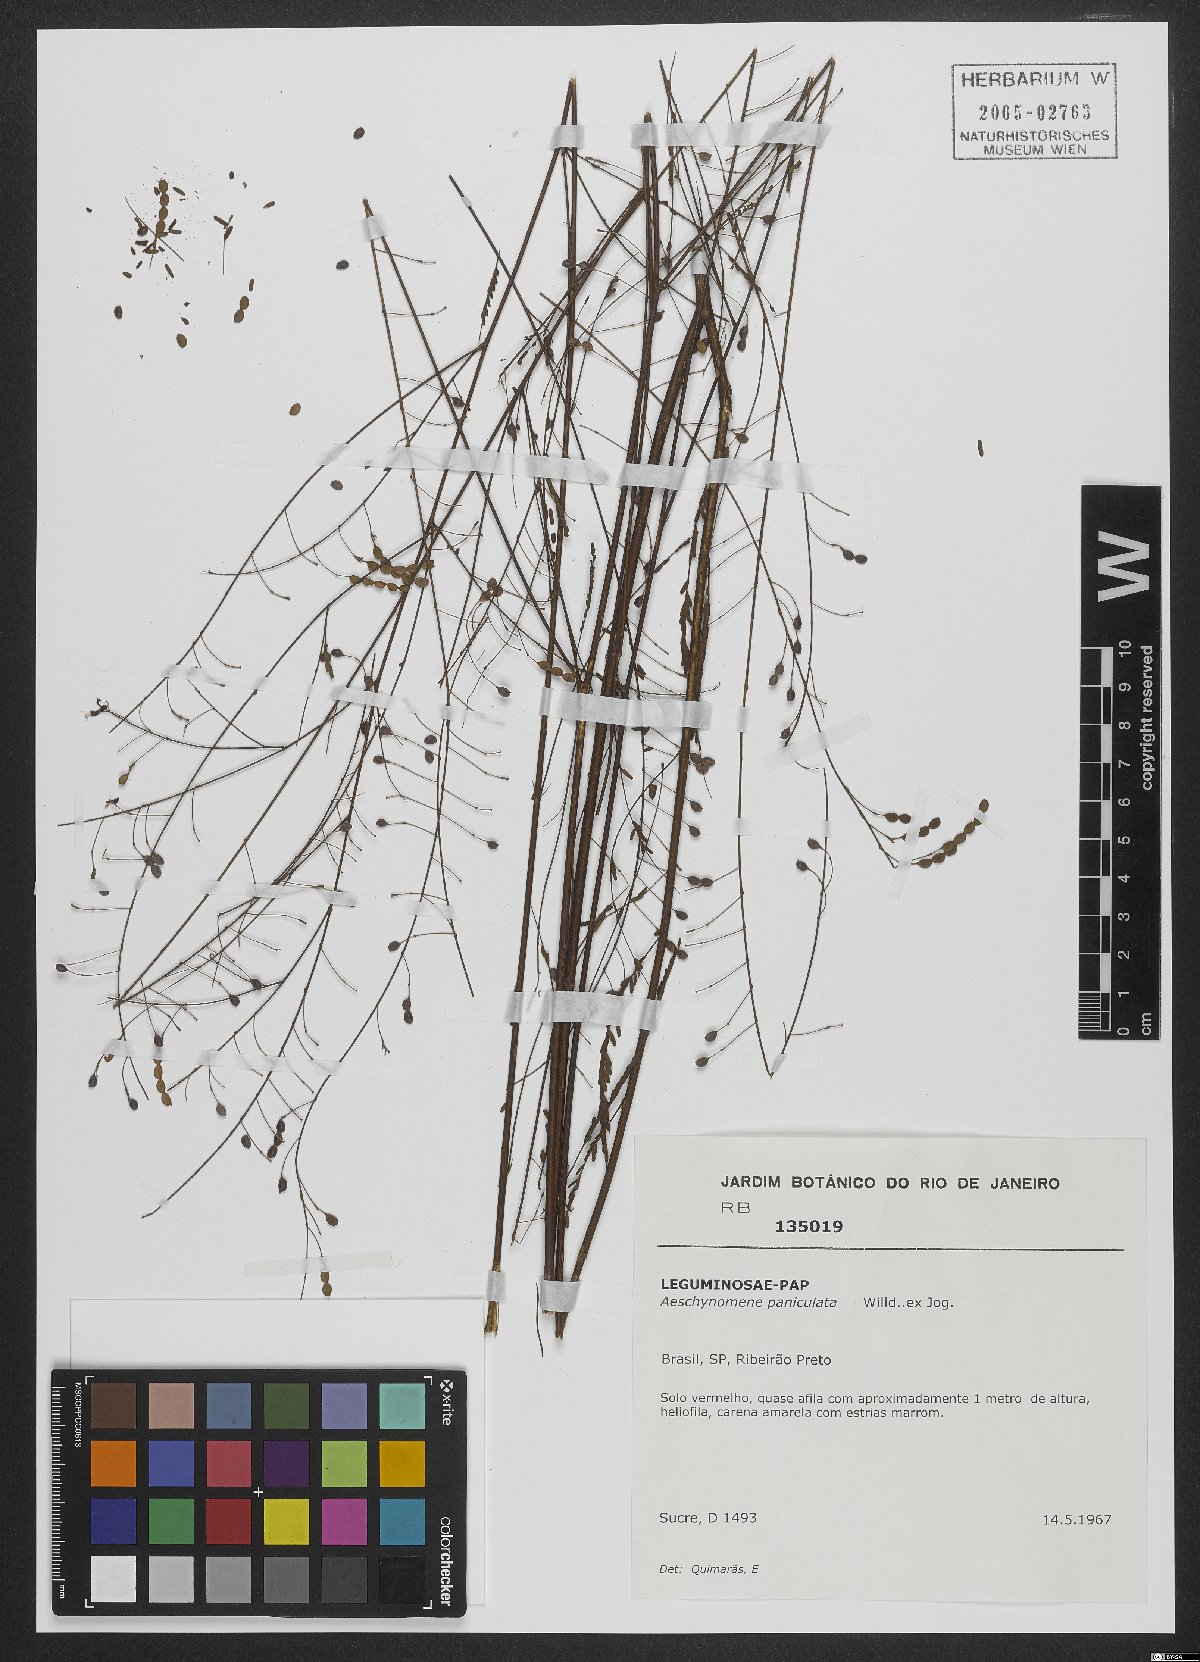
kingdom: Plantae
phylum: Tracheophyta
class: Magnoliopsida
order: Fabales
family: Fabaceae
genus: Ctenodon
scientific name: Ctenodon paniculatus
